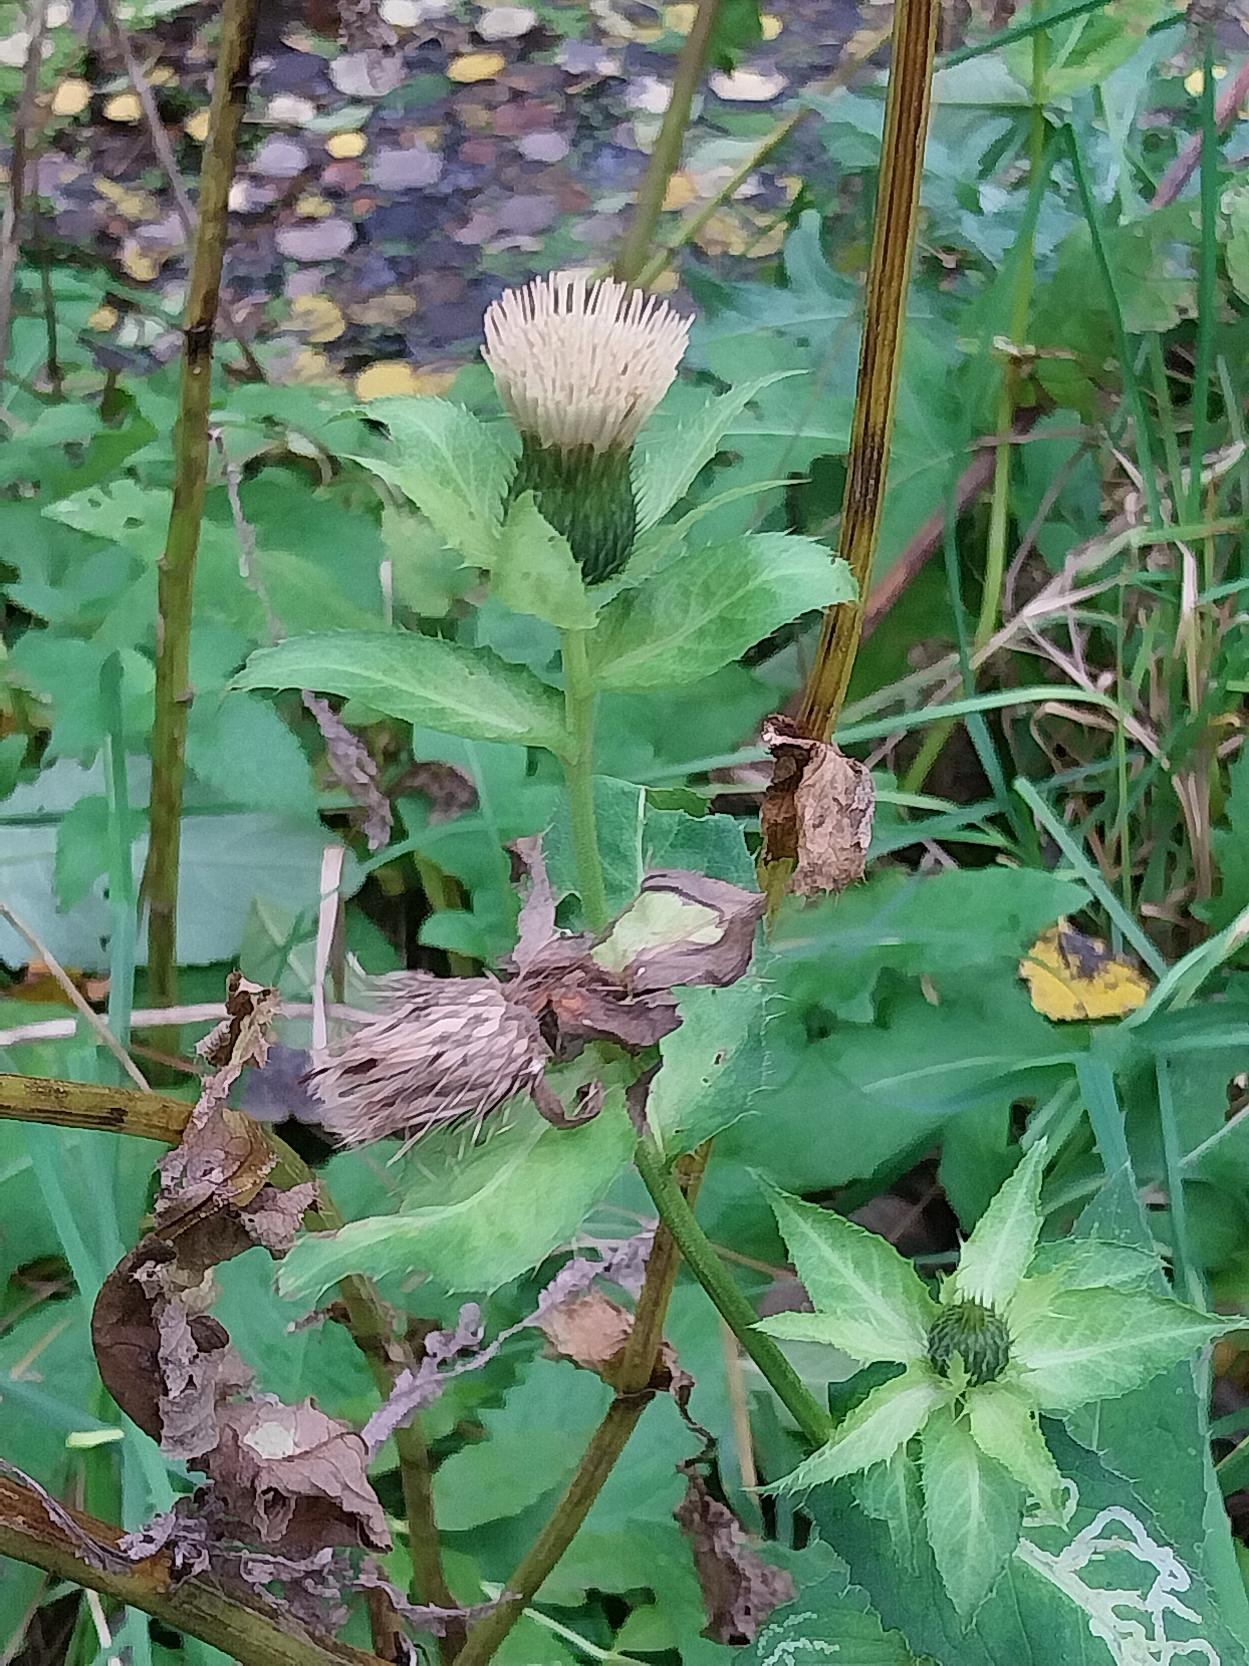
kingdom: Plantae
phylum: Tracheophyta
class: Magnoliopsida
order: Asterales
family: Asteraceae
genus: Cirsium
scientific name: Cirsium oleraceum
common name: Kål-tidsel
